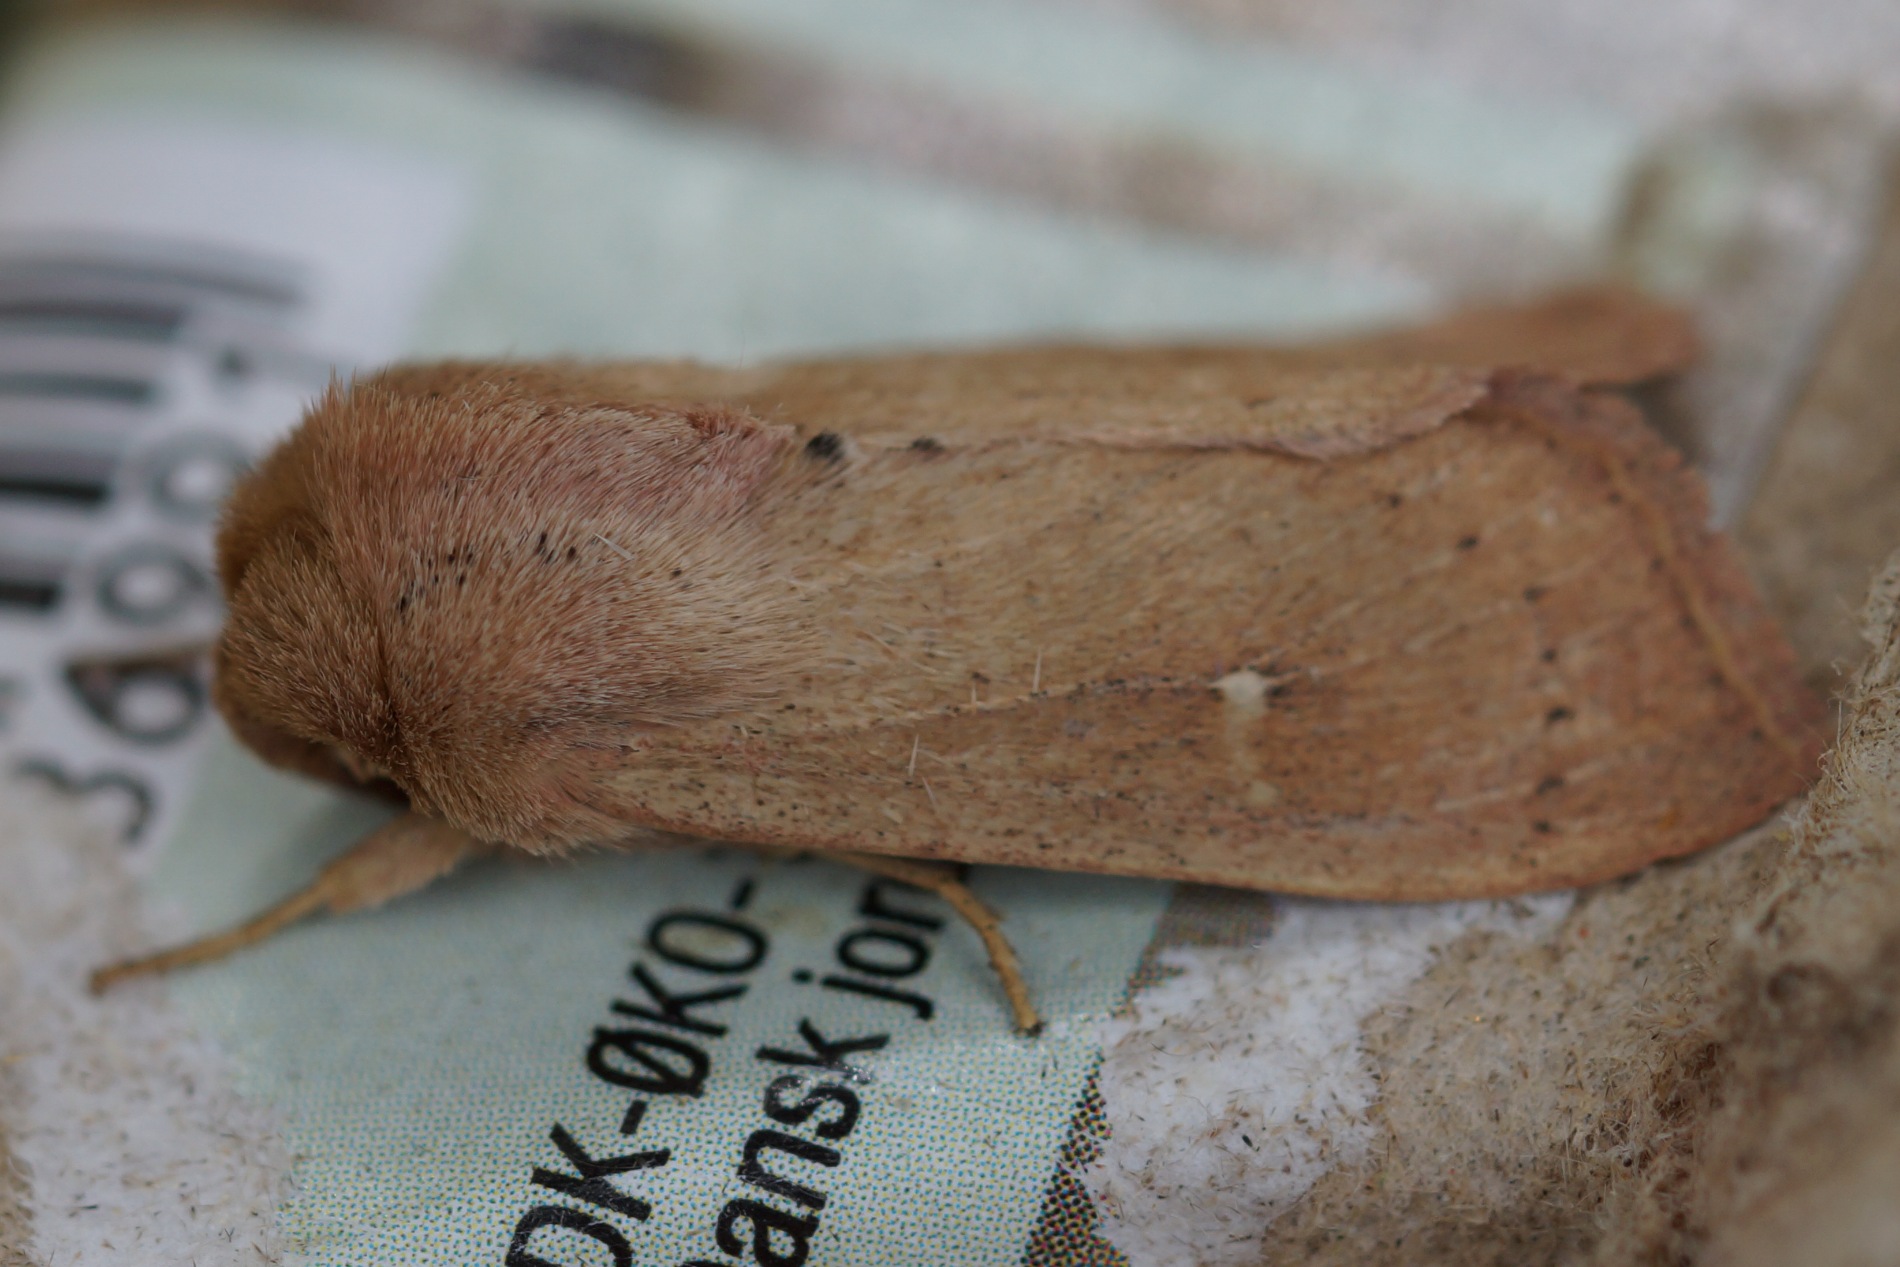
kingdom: Animalia
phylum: Arthropoda
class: Insecta
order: Lepidoptera
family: Noctuidae
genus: Mythimna
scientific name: Mythimna ferrago
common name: Rusten græsugle
